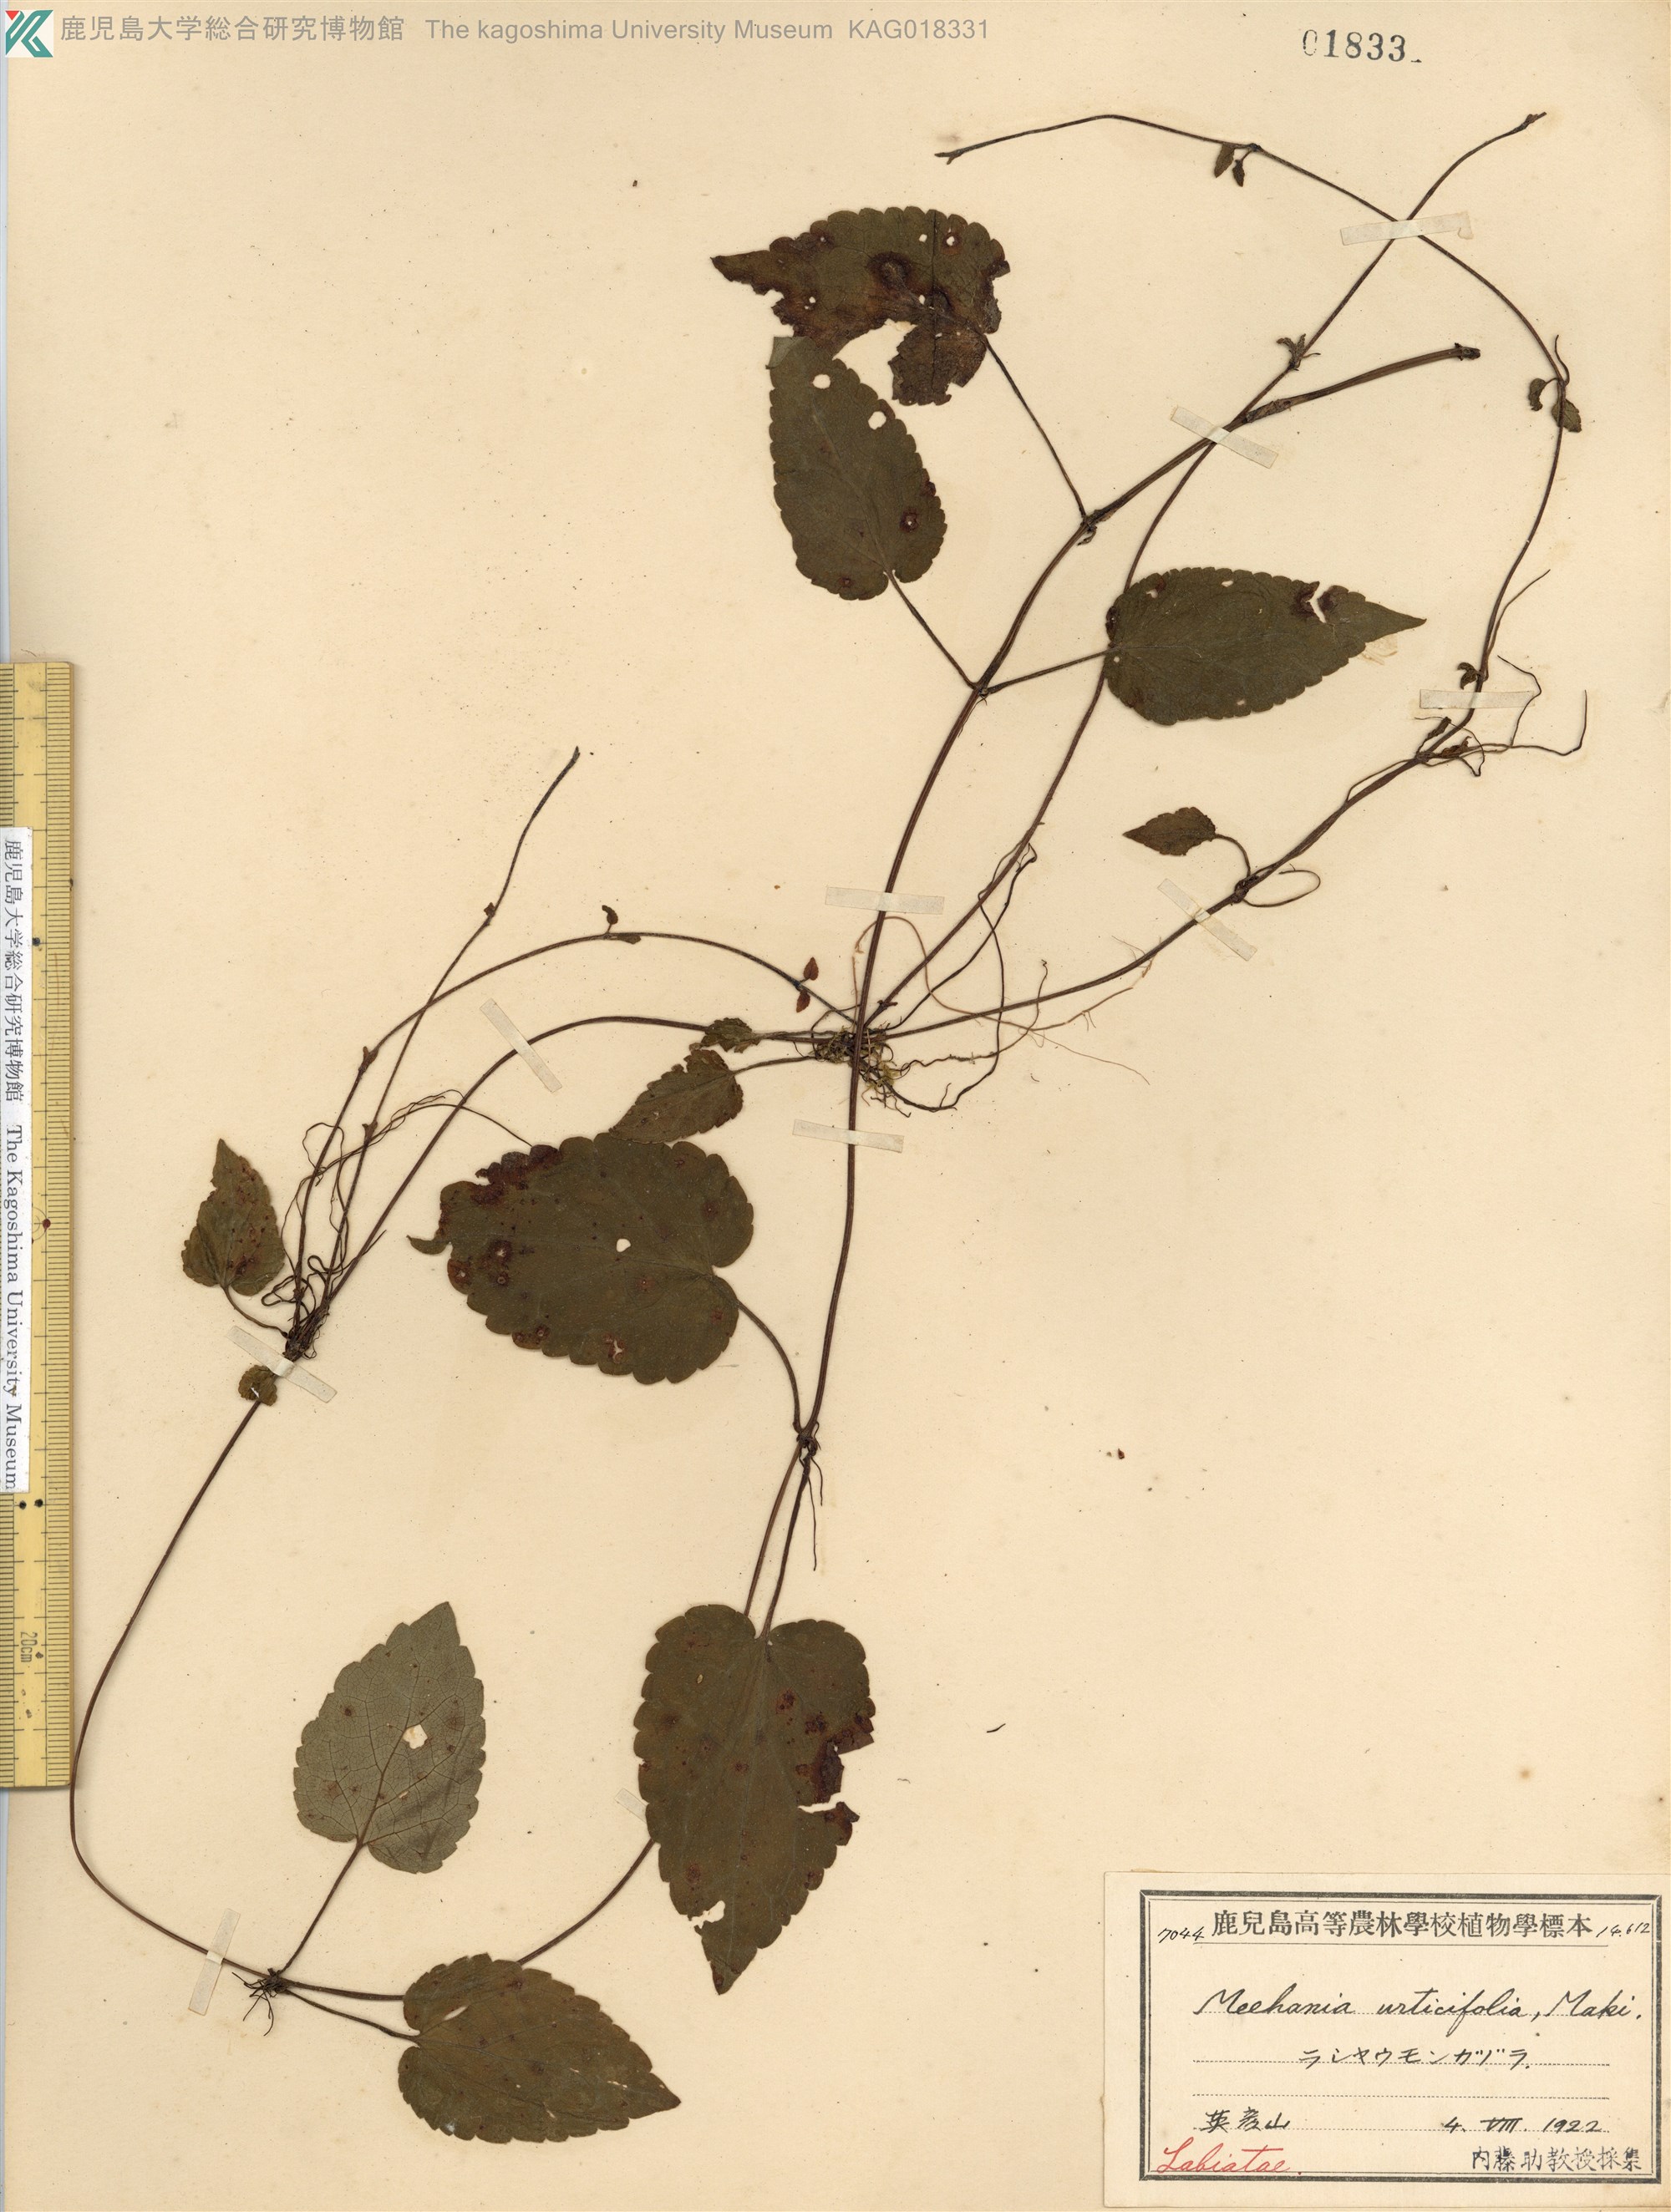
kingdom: Plantae
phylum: Tracheophyta
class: Magnoliopsida
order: Lamiales
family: Lamiaceae
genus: Meehania
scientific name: Meehania urticifolia
